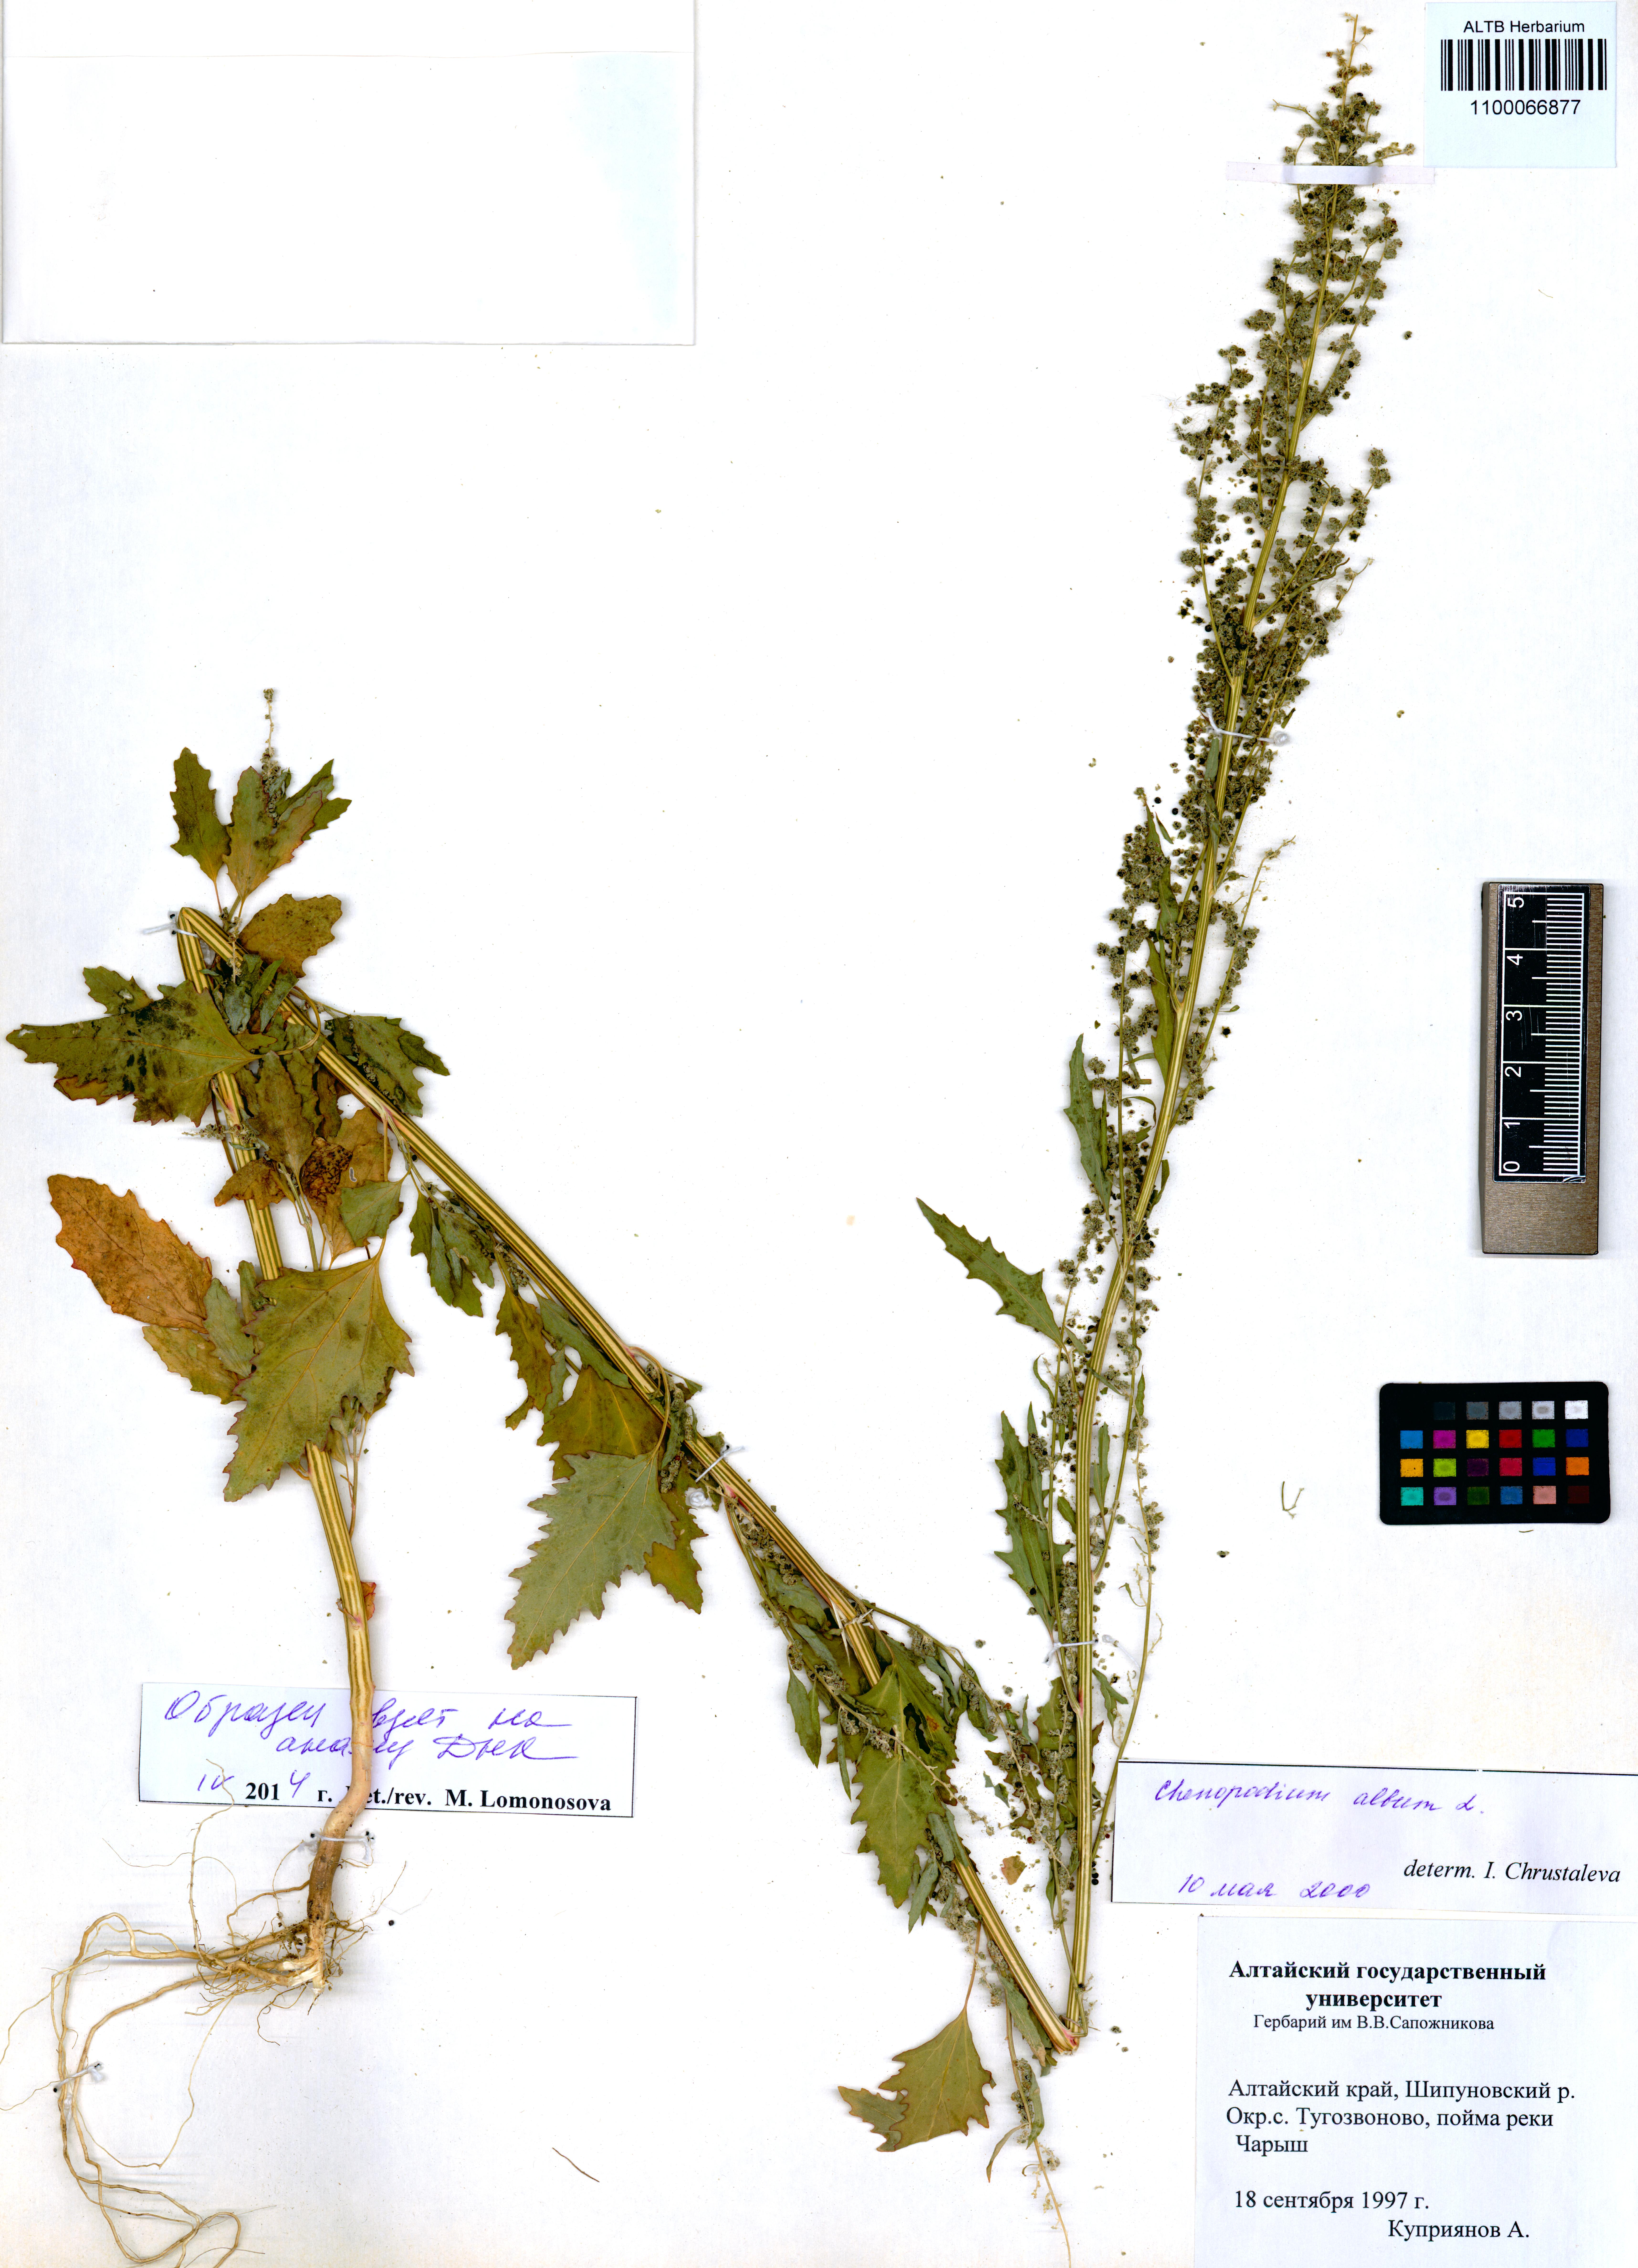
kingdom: Plantae
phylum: Tracheophyta
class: Magnoliopsida
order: Caryophyllales
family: Amaranthaceae
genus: Chenopodium
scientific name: Chenopodium album
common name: Fat-hen
